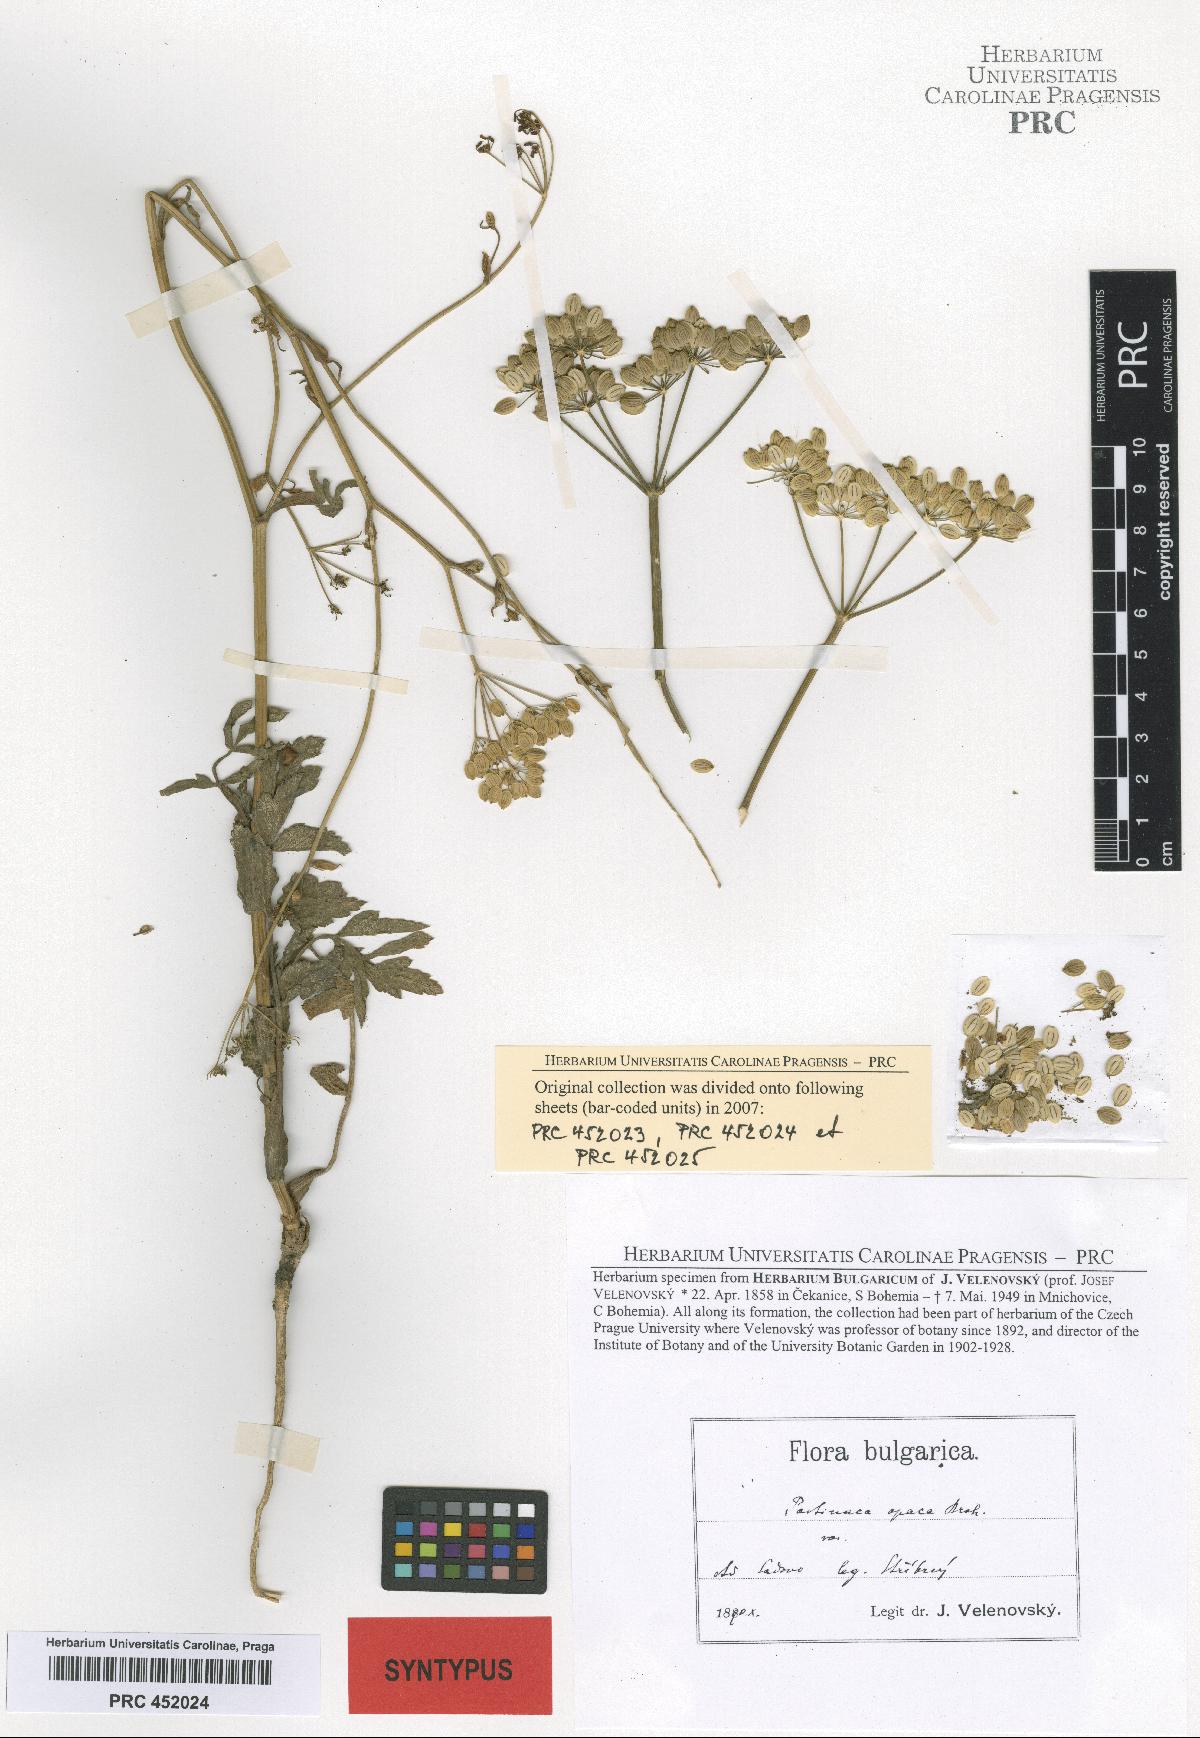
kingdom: Plantae
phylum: Tracheophyta
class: Magnoliopsida
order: Apiales
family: Apiaceae
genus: Pastinaca
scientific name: Pastinaca sativa
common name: Wild parsnip
